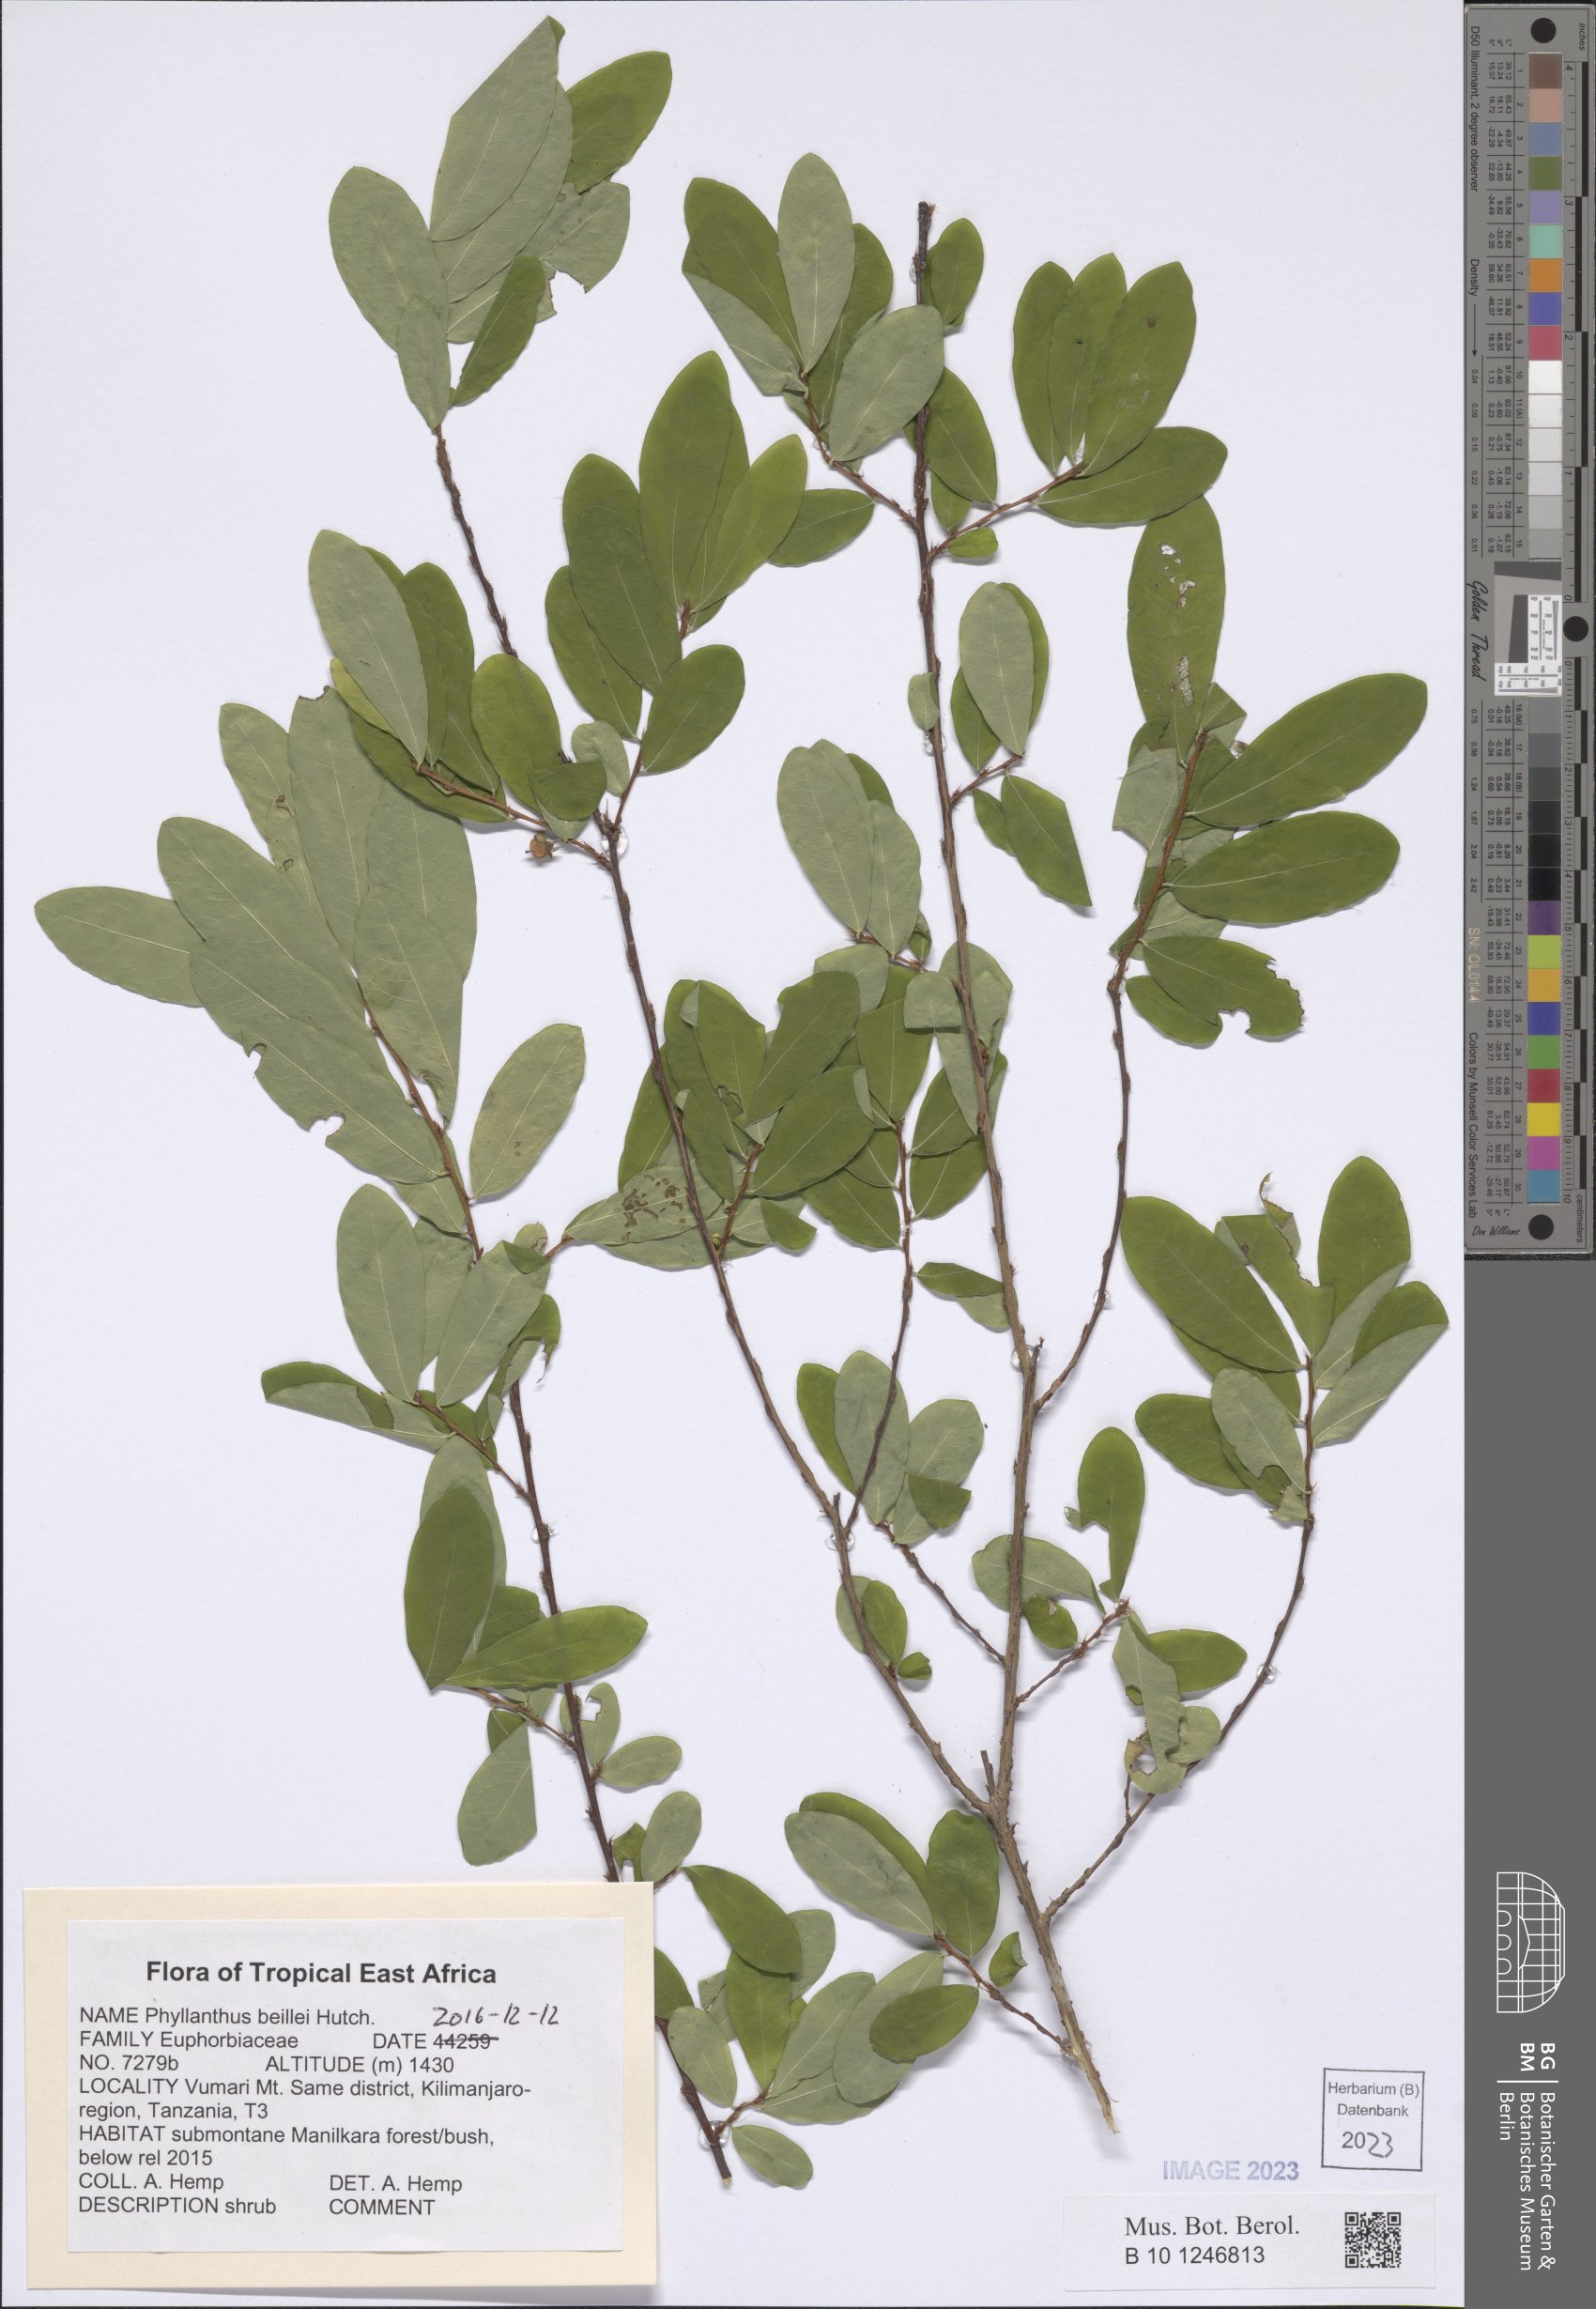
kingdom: Plantae
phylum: Tracheophyta
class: Magnoliopsida
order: Malpighiales
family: Phyllanthaceae
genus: Phyllanthus
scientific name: Phyllanthus welwitschianus
